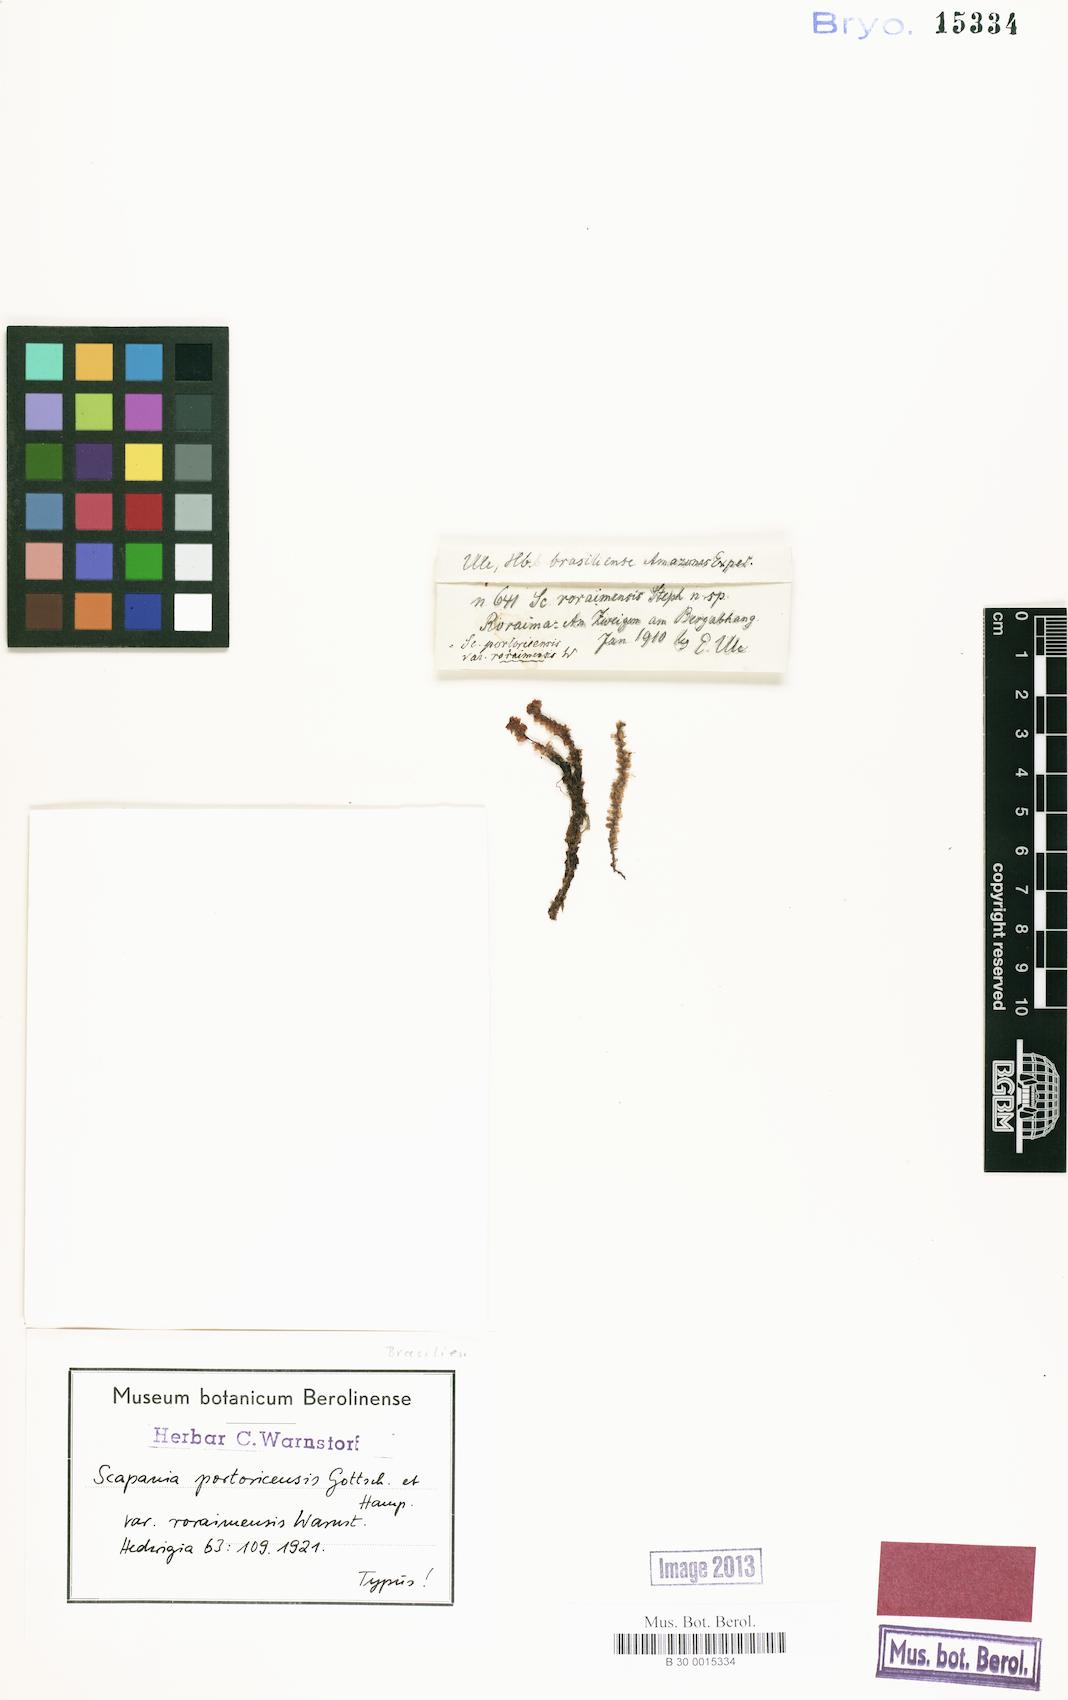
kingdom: Plantae
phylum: Marchantiophyta
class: Jungermanniopsida
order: Jungermanniales
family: Scapaniaceae
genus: Scapania
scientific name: Scapania portoricensis
